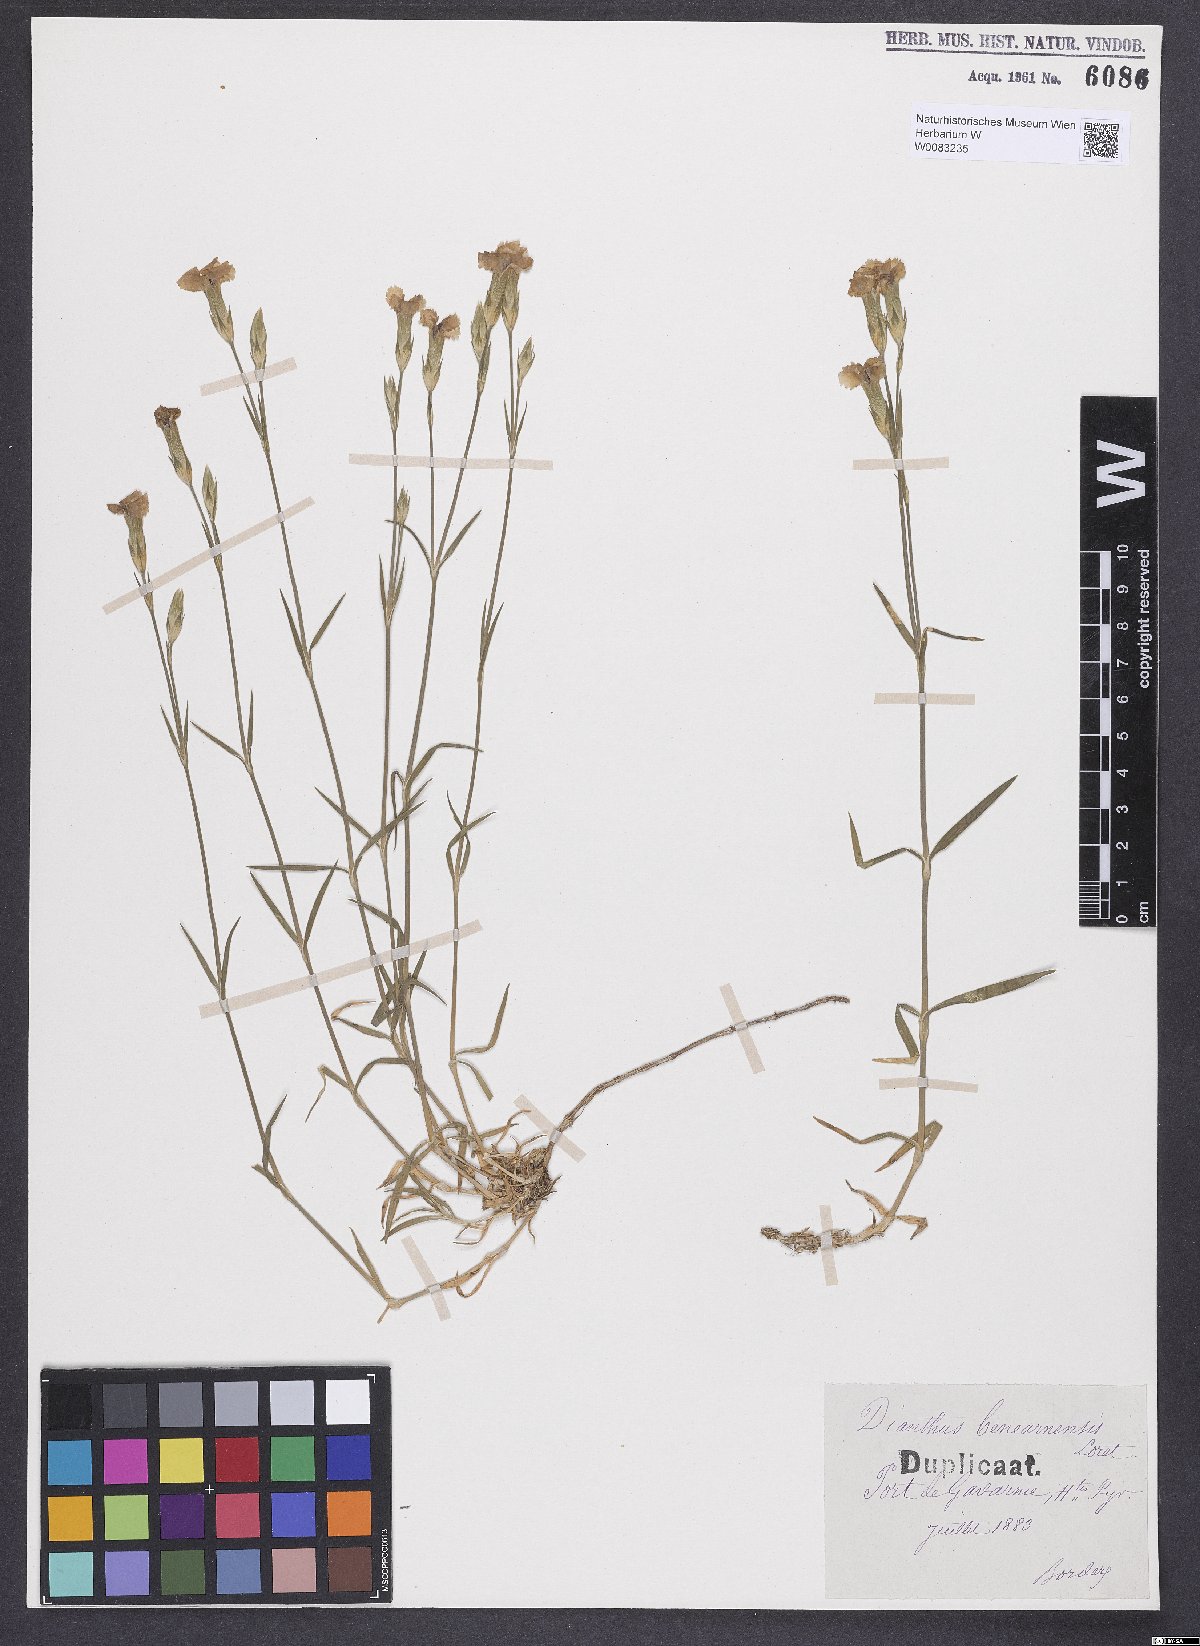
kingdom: Plantae
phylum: Tracheophyta
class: Magnoliopsida
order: Caryophyllales
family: Caryophyllaceae
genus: Dianthus
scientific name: Dianthus furcatus
